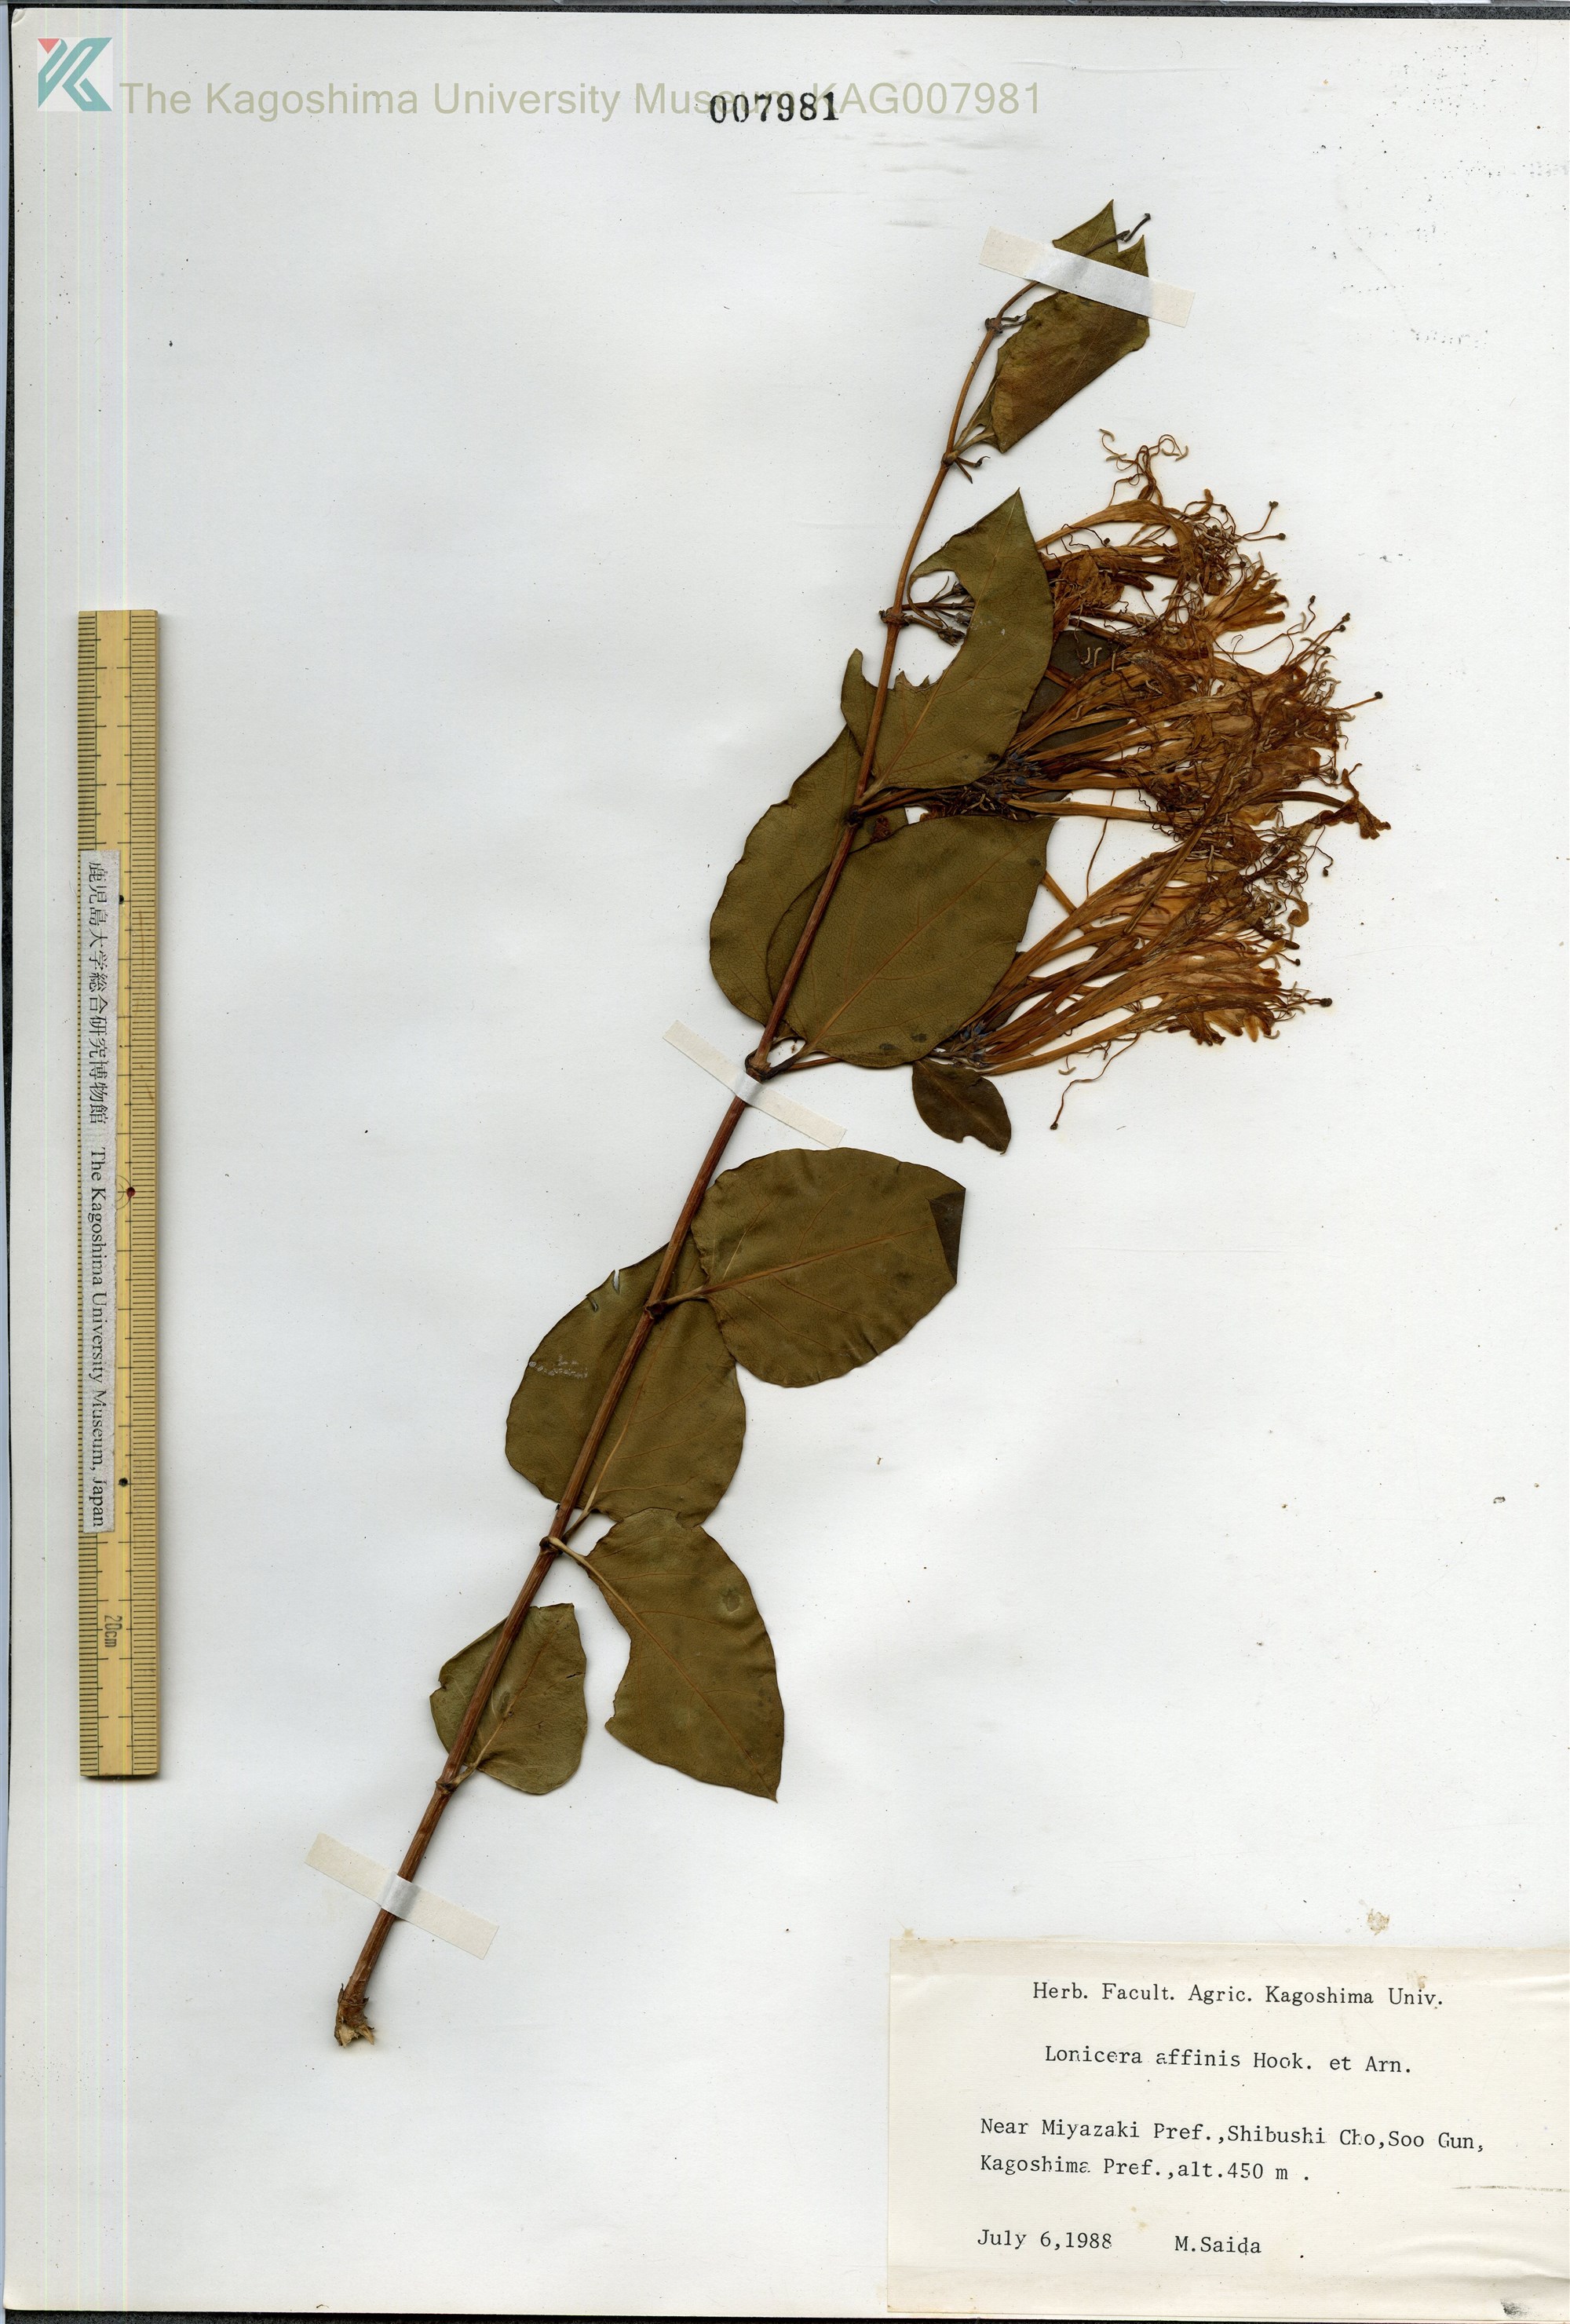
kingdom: Plantae
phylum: Tracheophyta
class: Magnoliopsida
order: Dipsacales
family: Caprifoliaceae
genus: Lonicera
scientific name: Lonicera affinis
